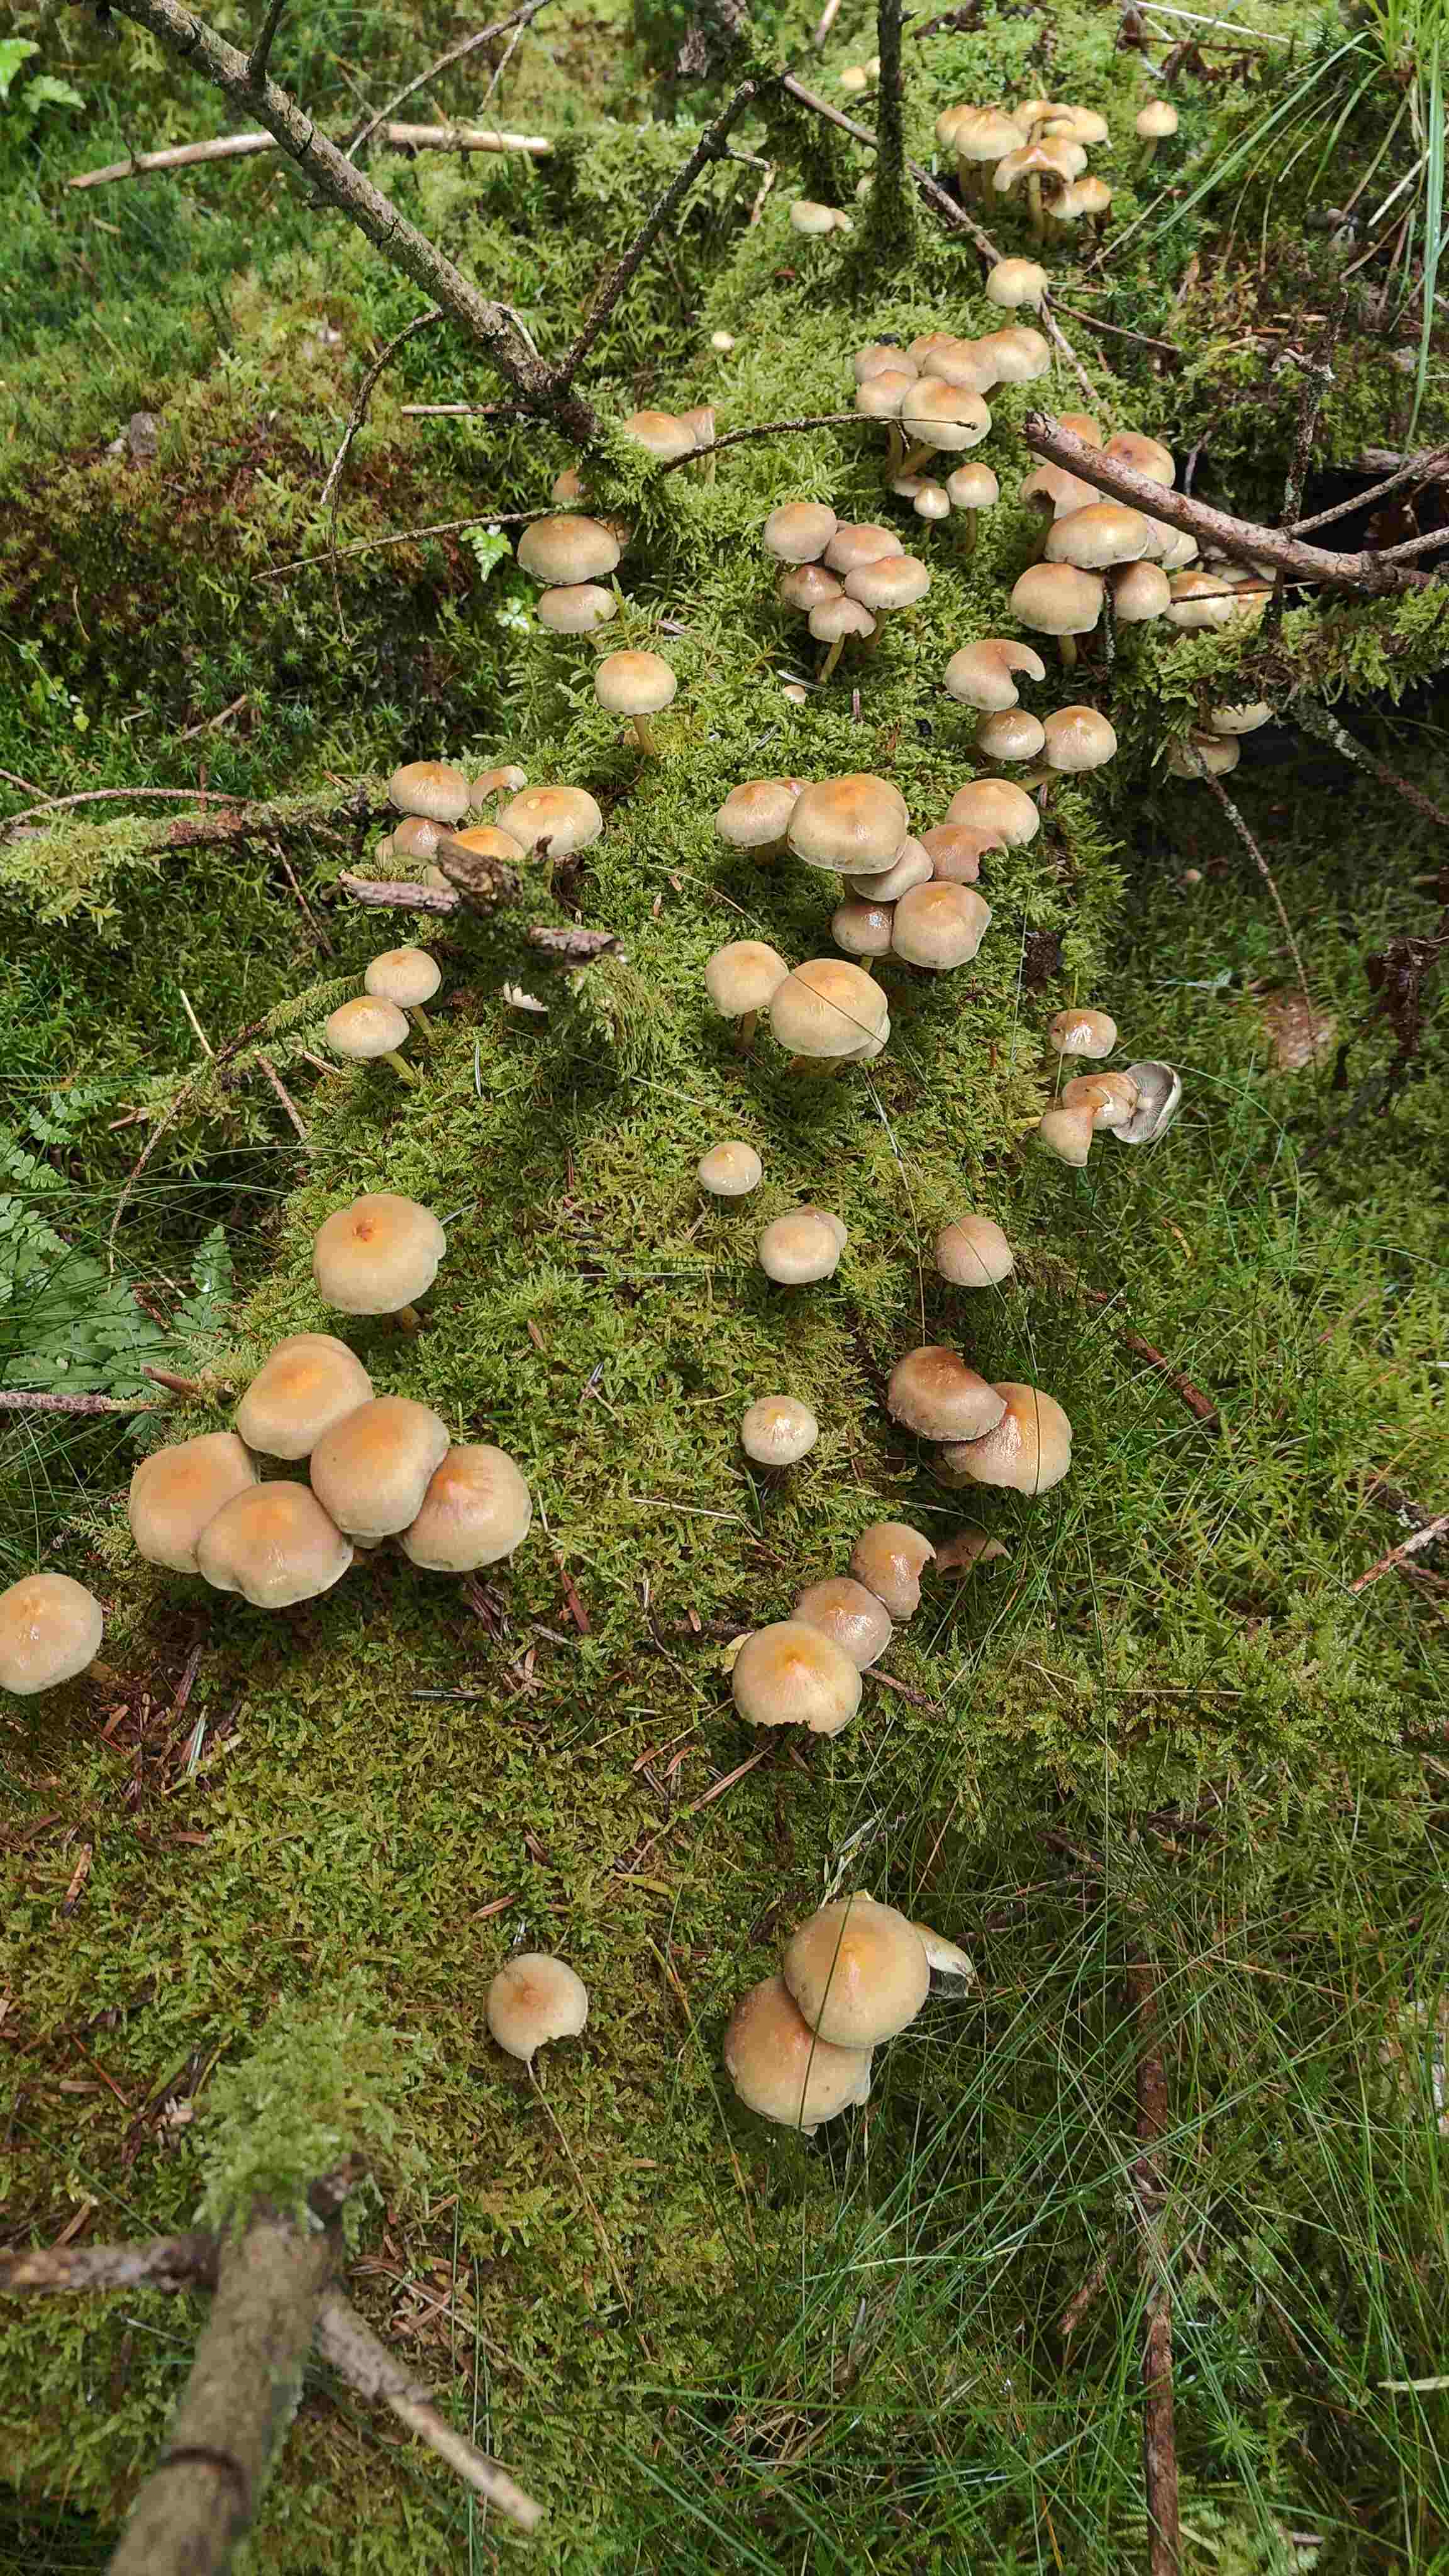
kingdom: Fungi
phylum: Basidiomycota
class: Agaricomycetes
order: Agaricales
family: Strophariaceae
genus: Hypholoma
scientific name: Hypholoma fasciculare
